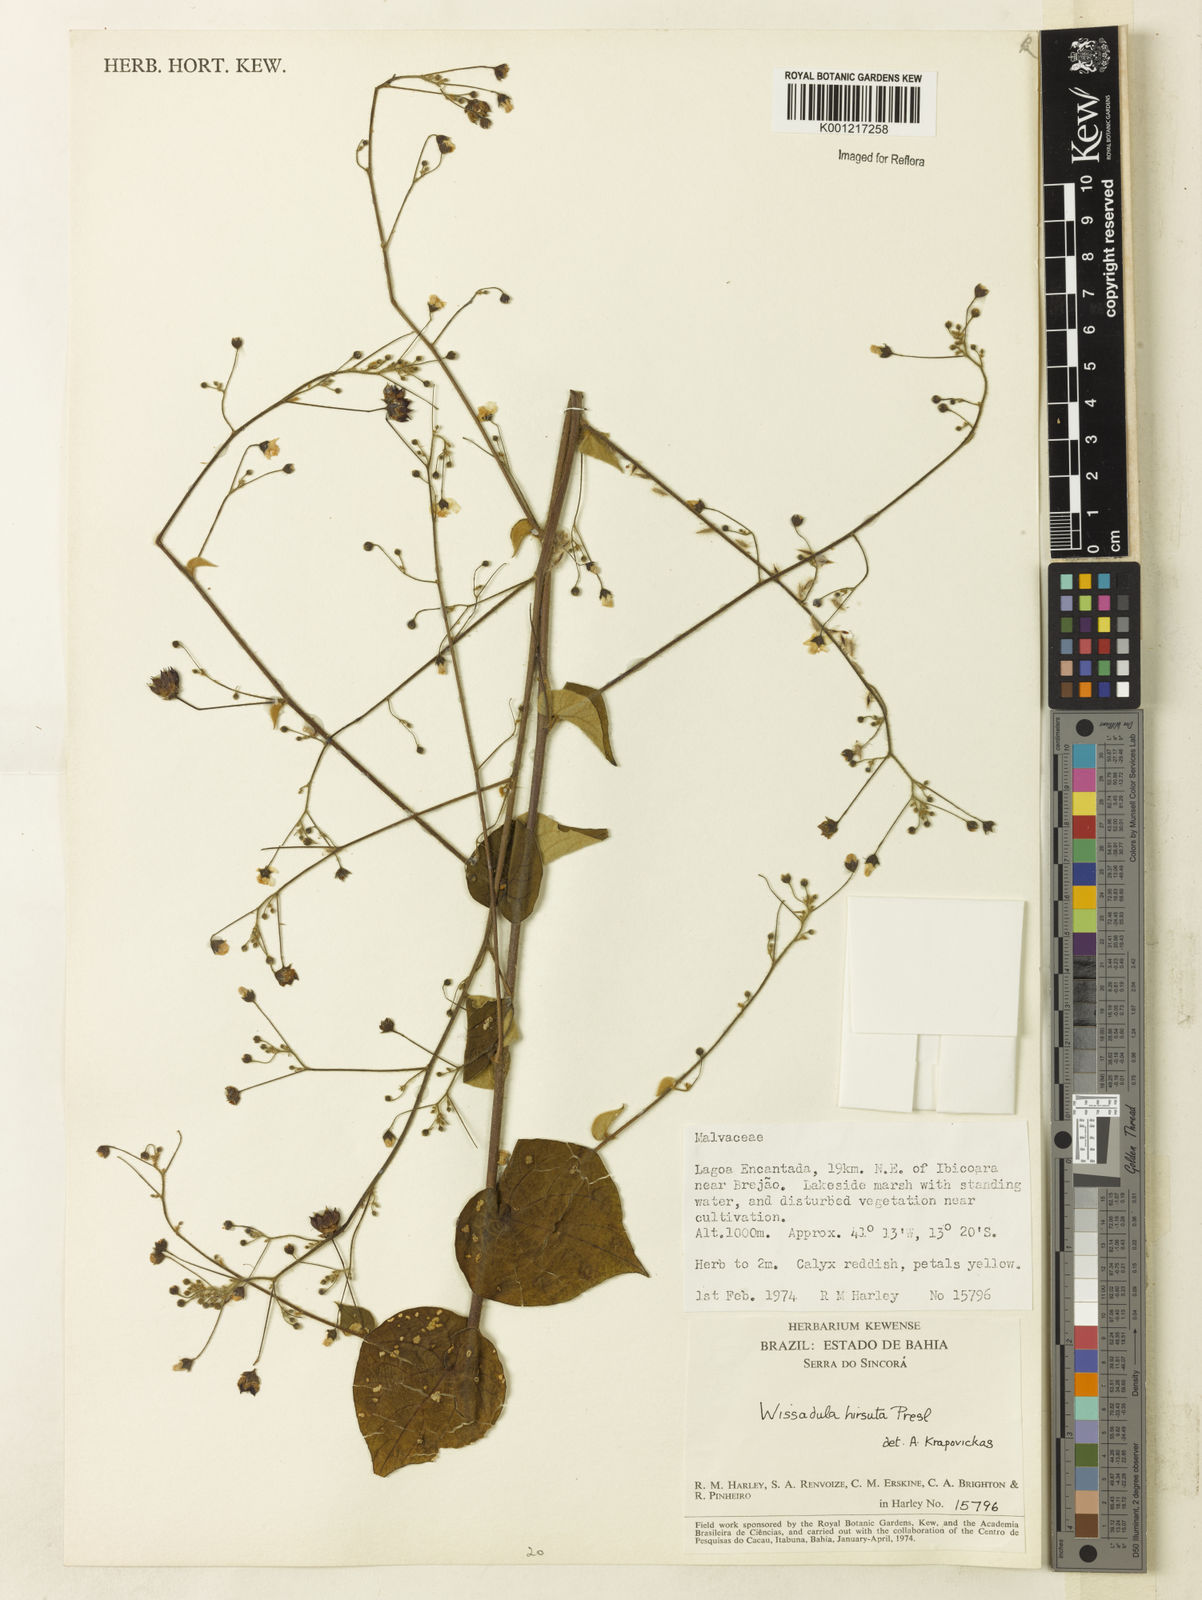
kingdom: Plantae
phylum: Tracheophyta
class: Magnoliopsida
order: Malvales
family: Malvaceae
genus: Wissadula
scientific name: Wissadula amplissima
